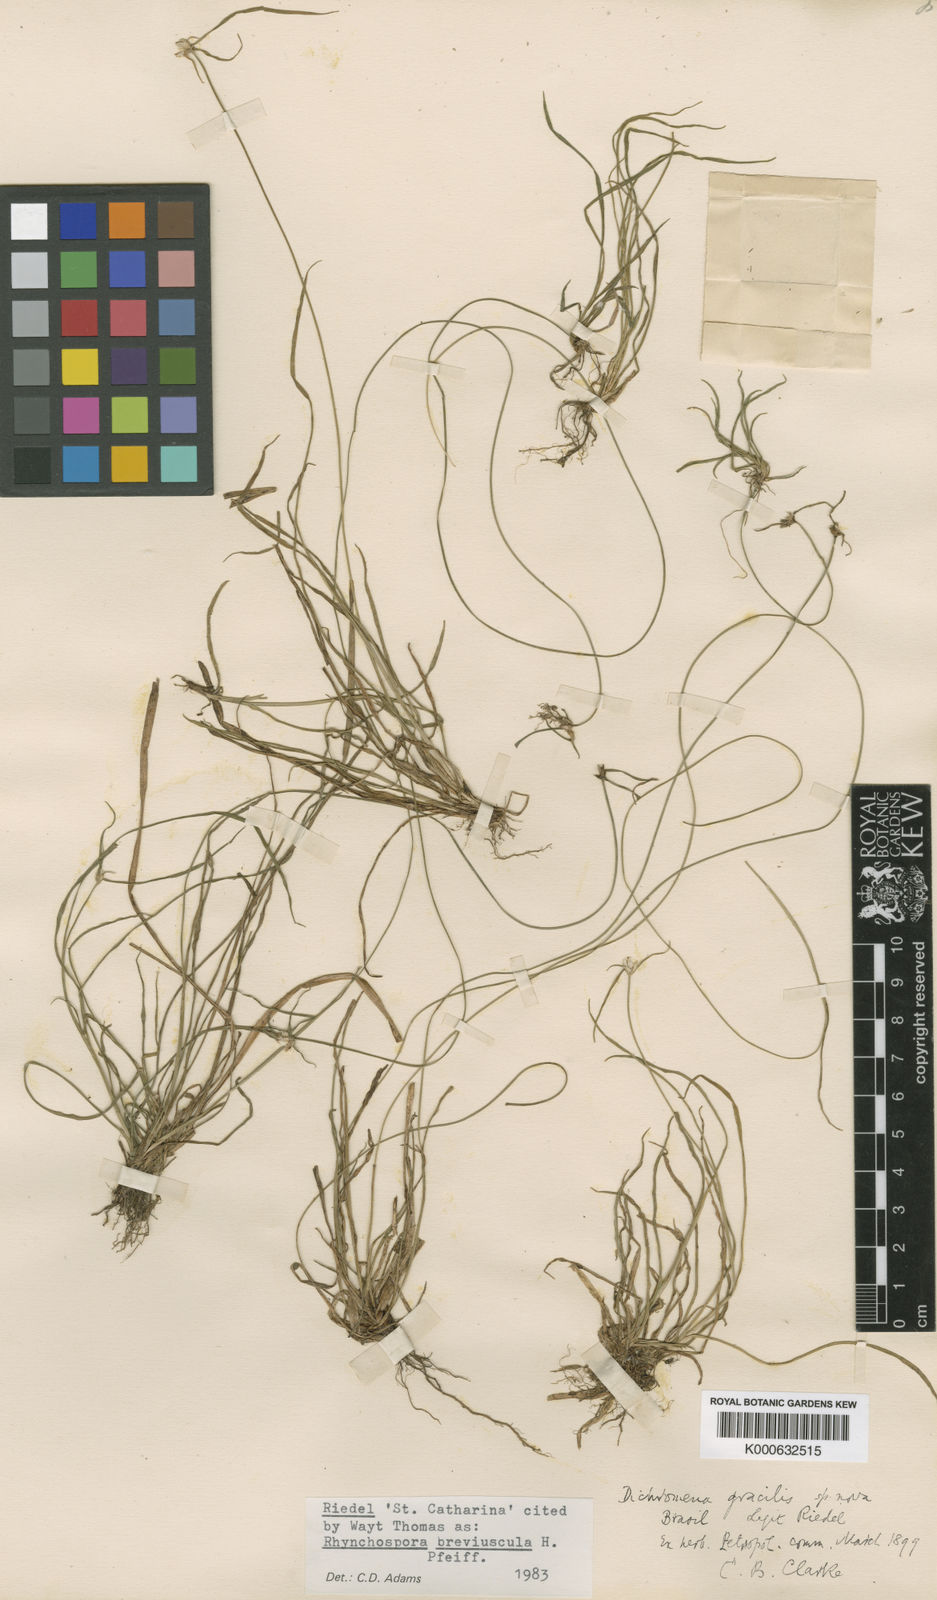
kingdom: Plantae
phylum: Tracheophyta
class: Liliopsida
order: Poales
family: Cyperaceae
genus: Rhynchospora
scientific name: Rhynchospora breviuscula
